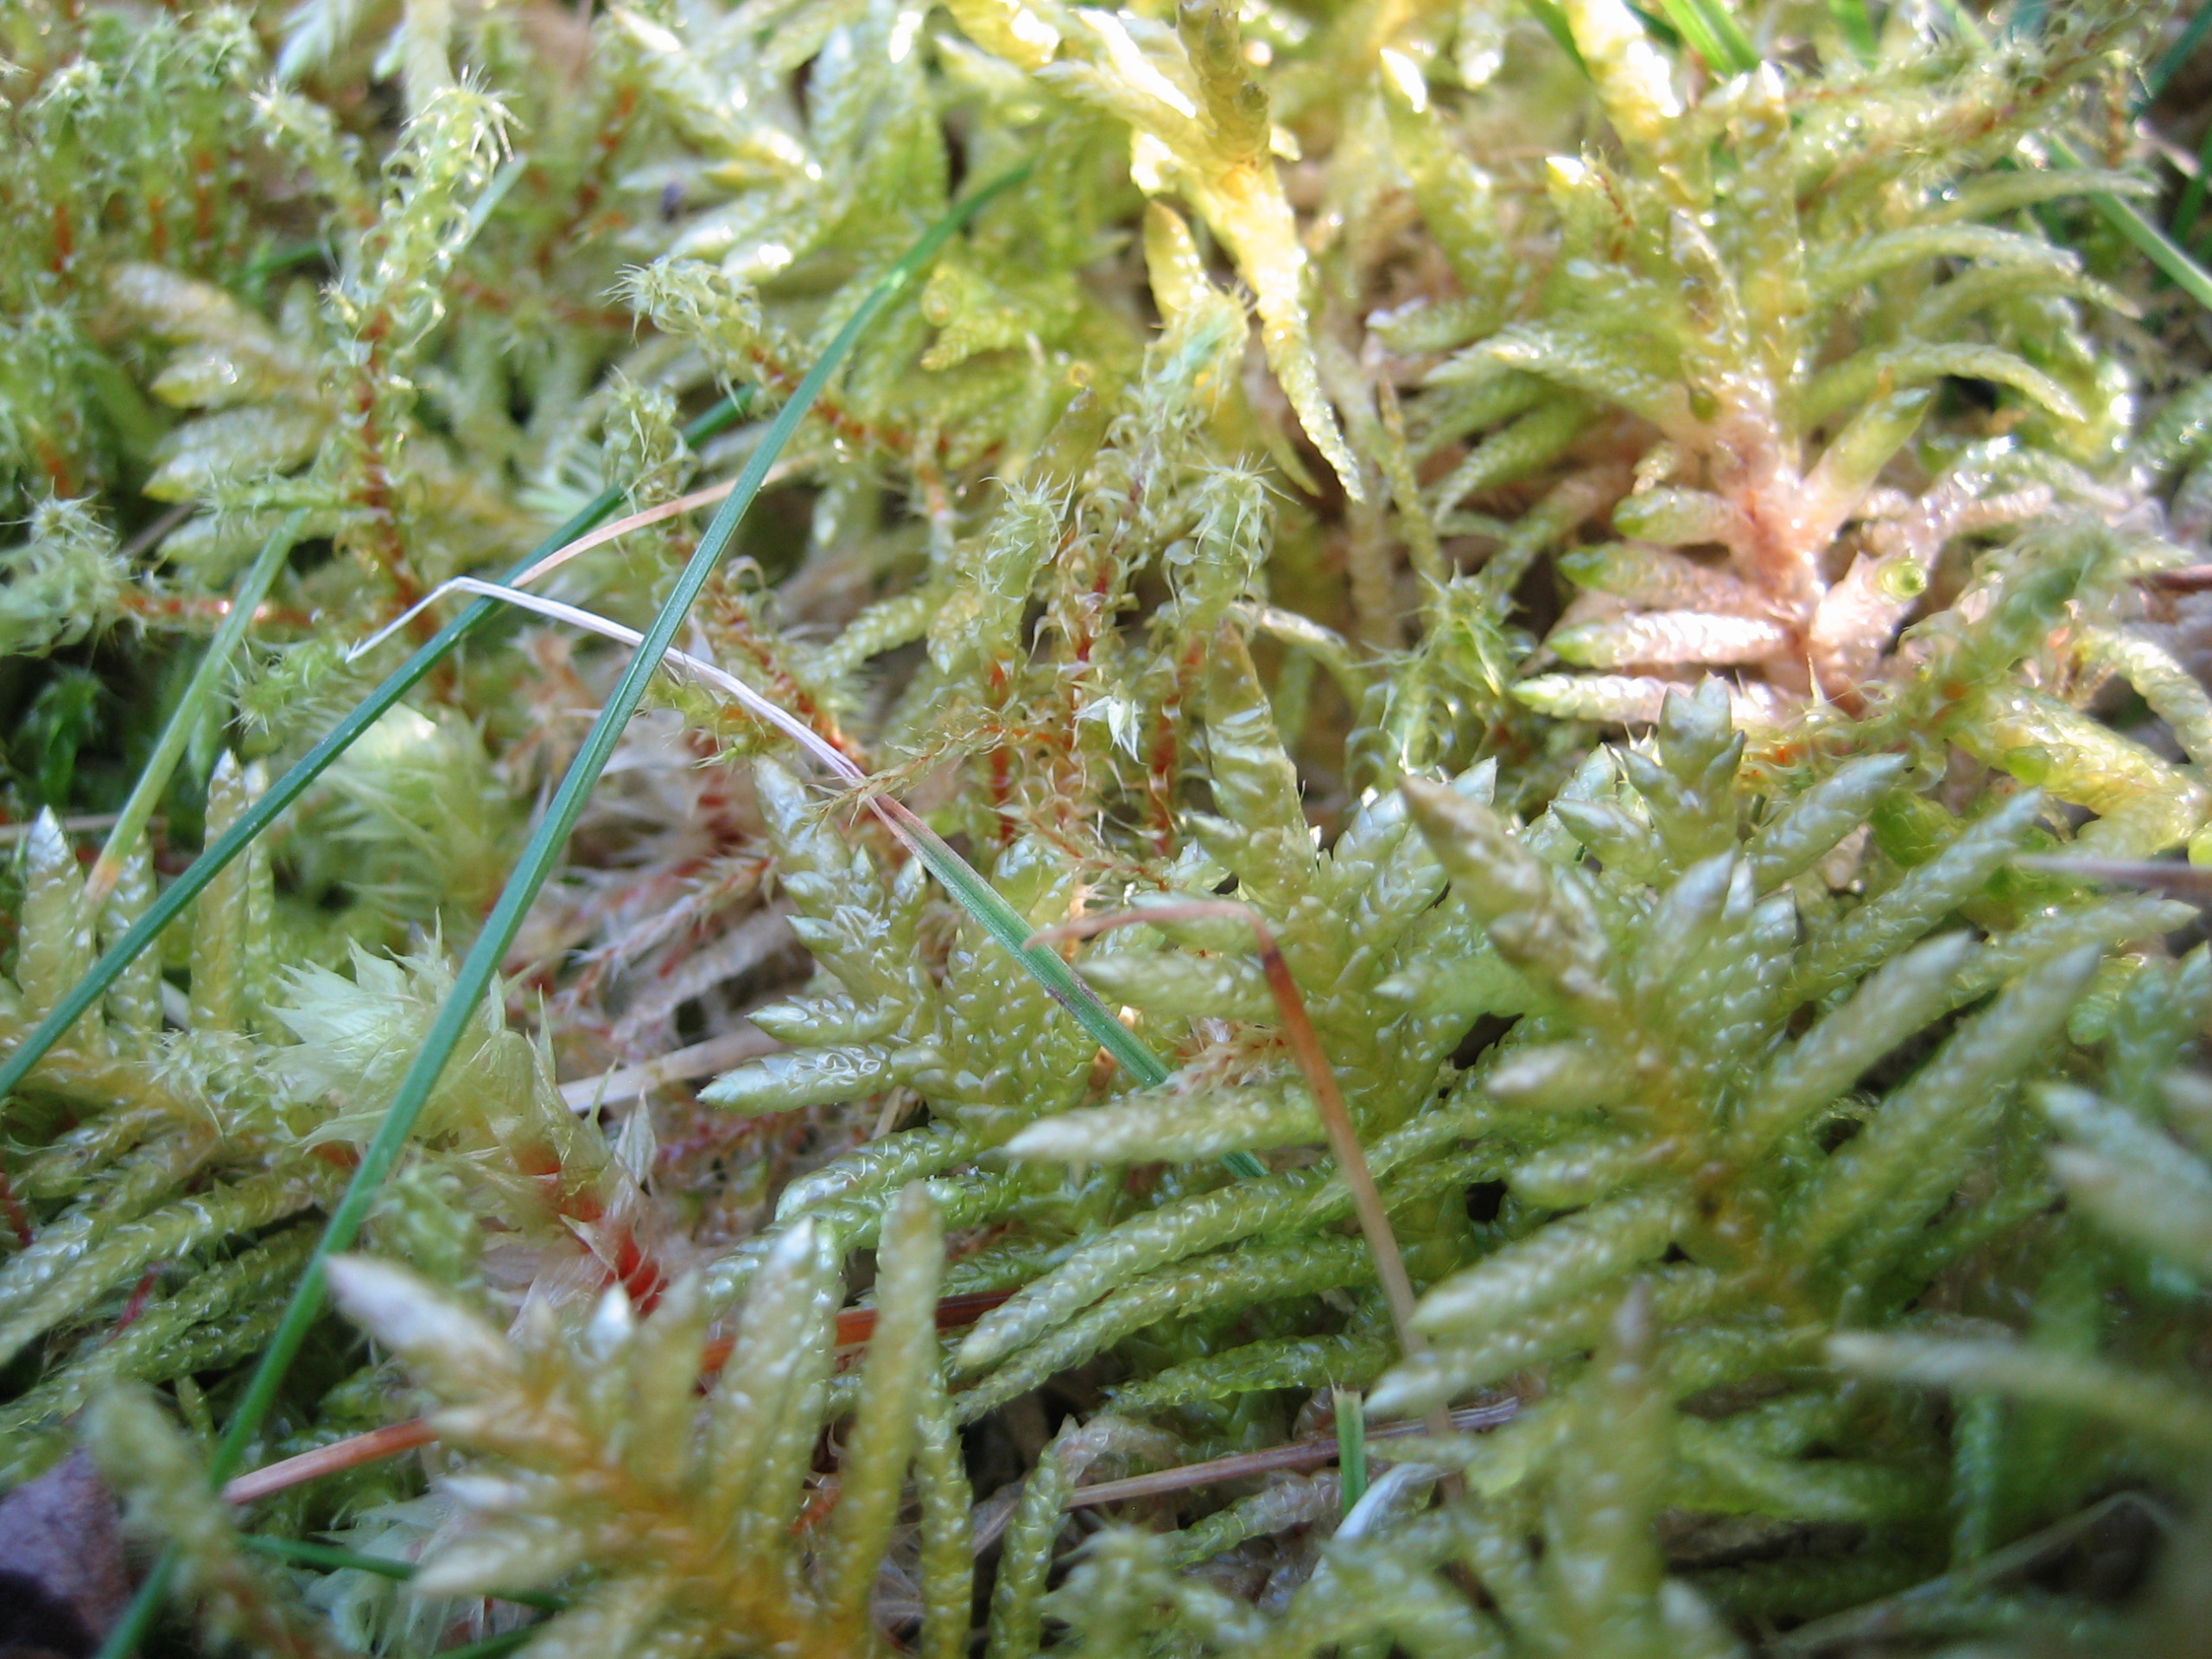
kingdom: Plantae
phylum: Bryophyta
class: Bryopsida
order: Hypnales
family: Brachytheciaceae
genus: Pseudoscleropodium
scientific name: Pseudoscleropodium purum
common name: Hulbladet fedtmos
